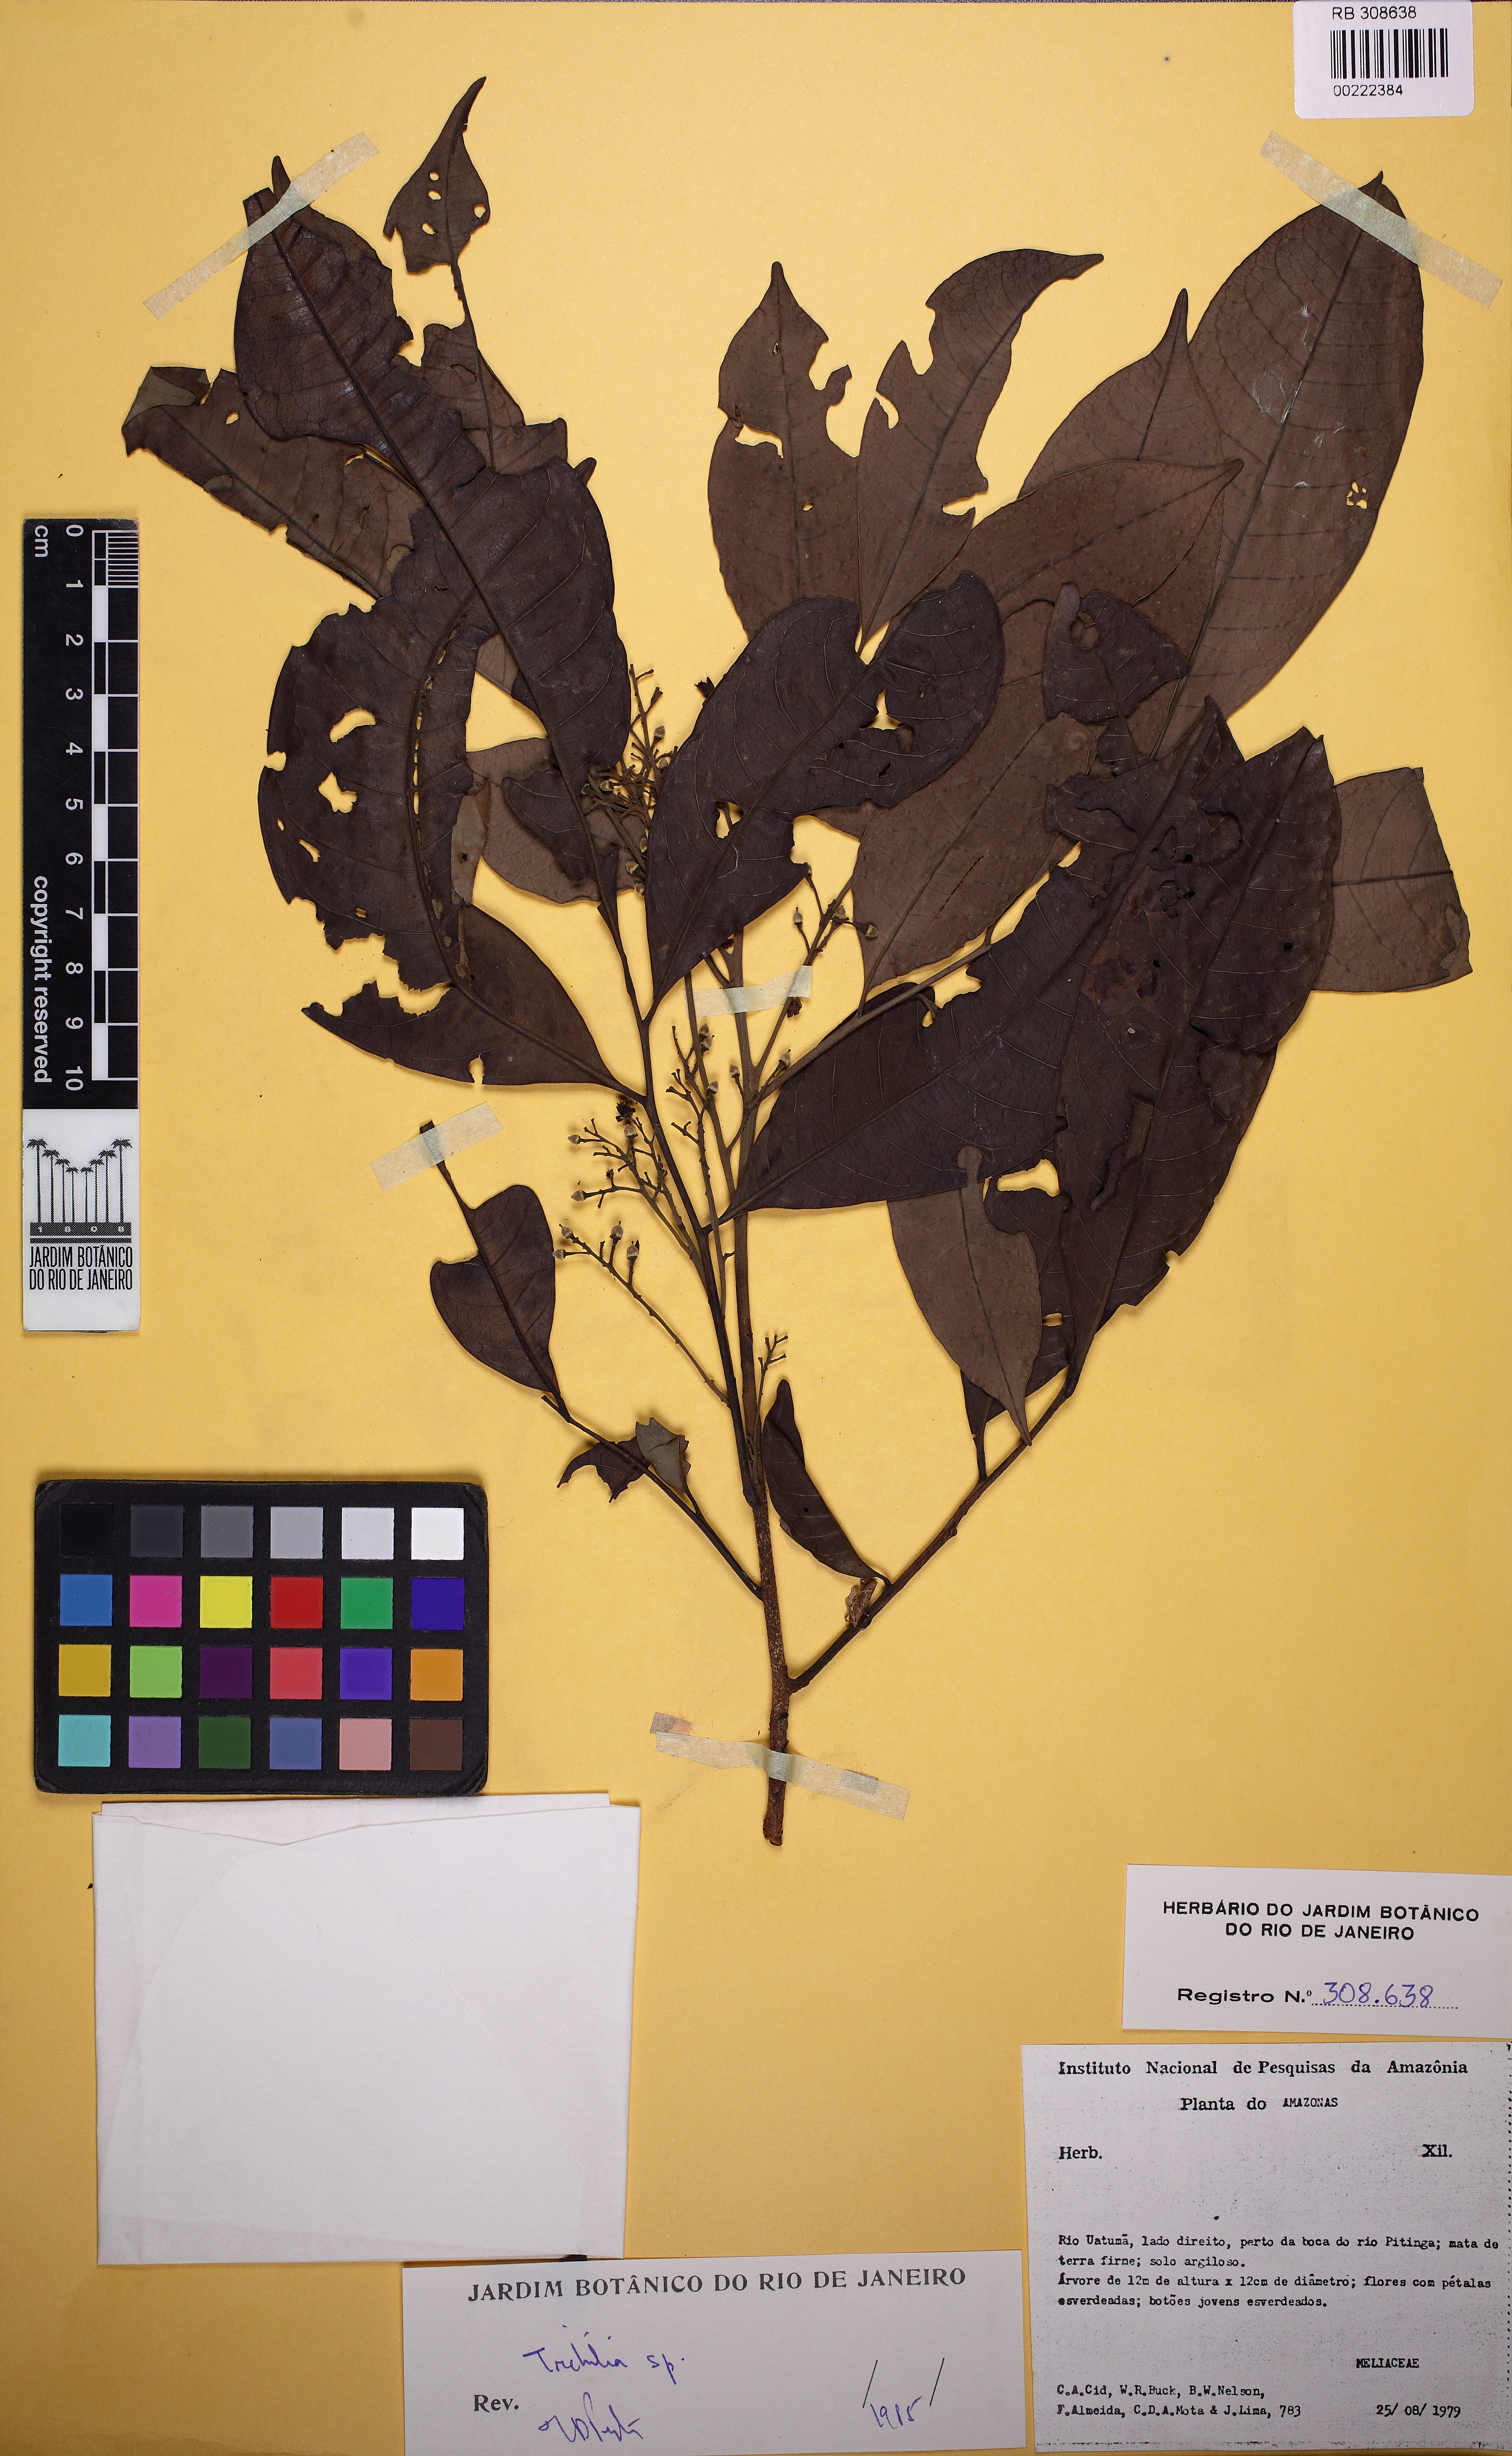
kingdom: Plantae
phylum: Tracheophyta
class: Magnoliopsida
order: Sapindales
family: Meliaceae
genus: Trichilia
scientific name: Trichilia
